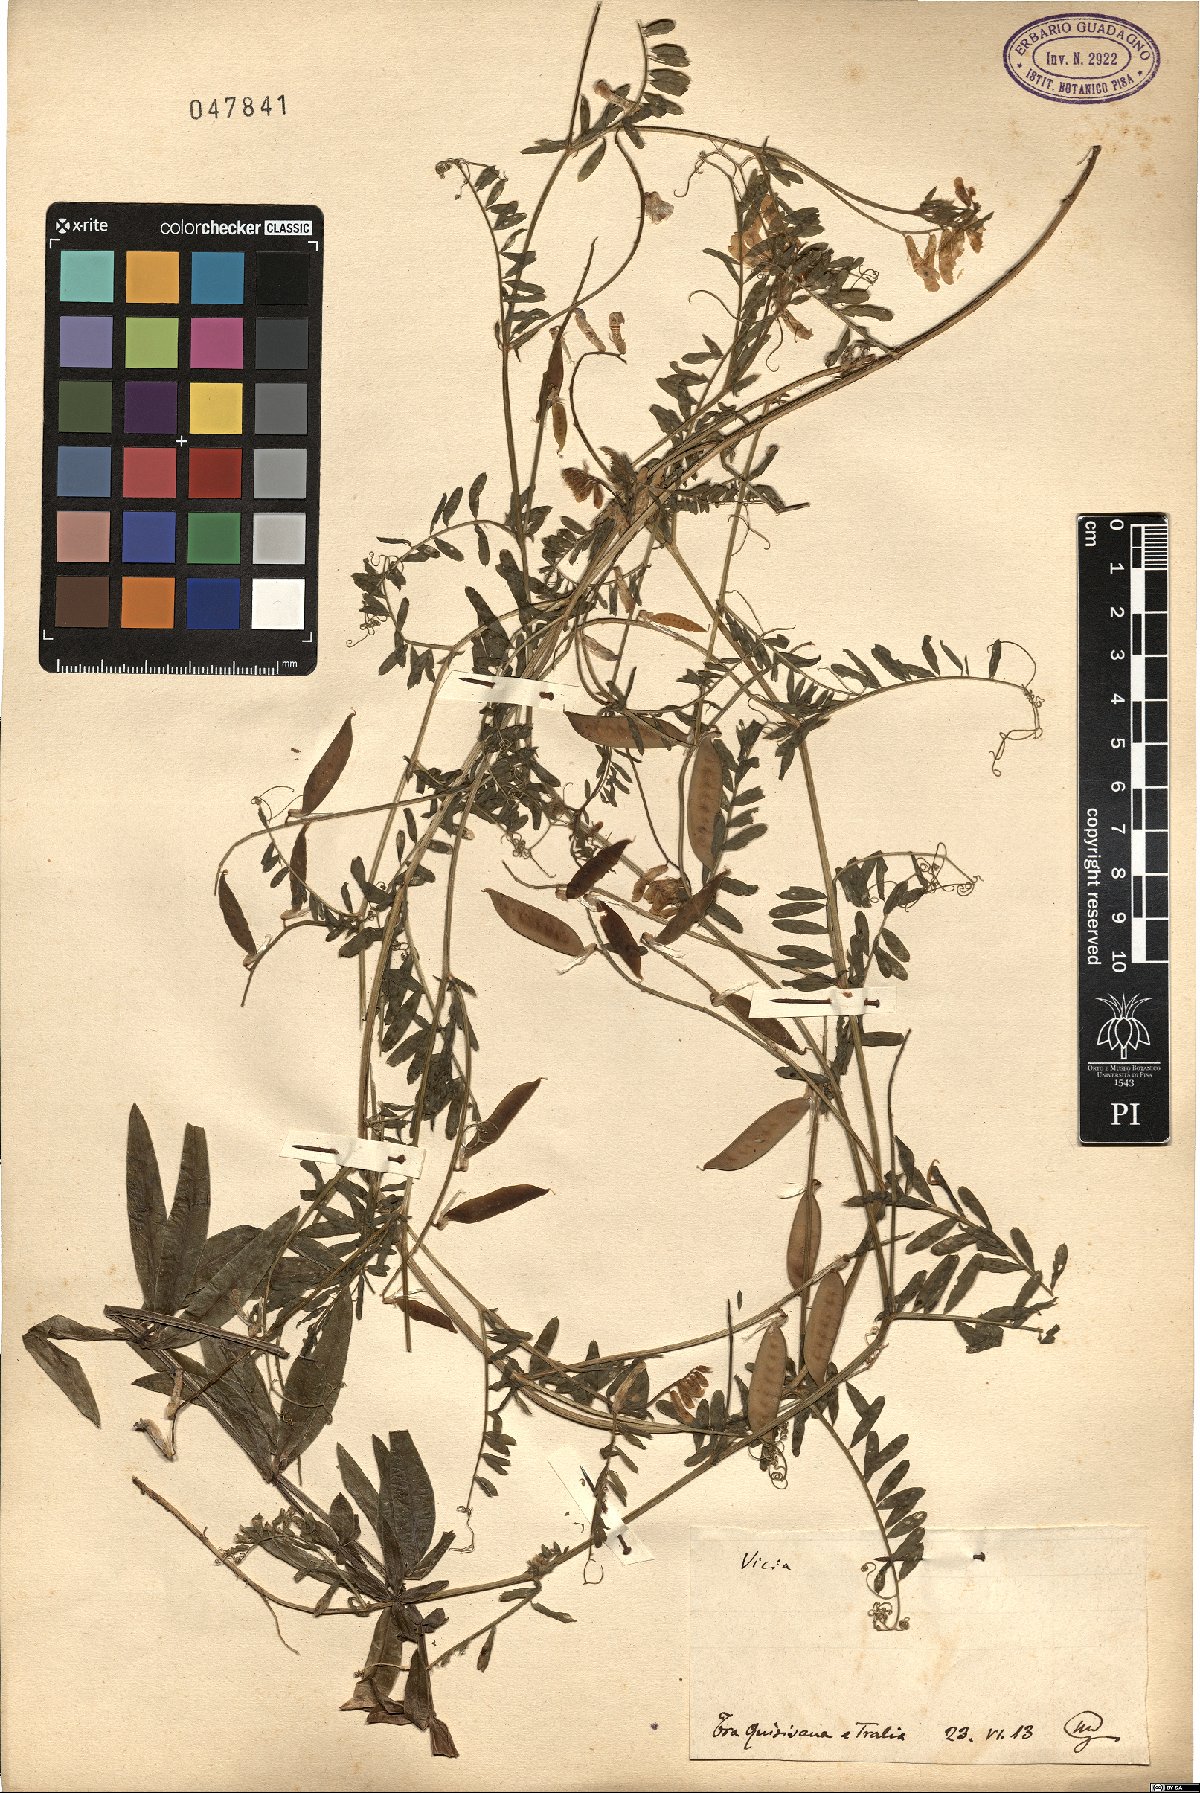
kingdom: Plantae
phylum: Tracheophyta
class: Magnoliopsida
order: Fabales
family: Fabaceae
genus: Vicia
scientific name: Vicia
